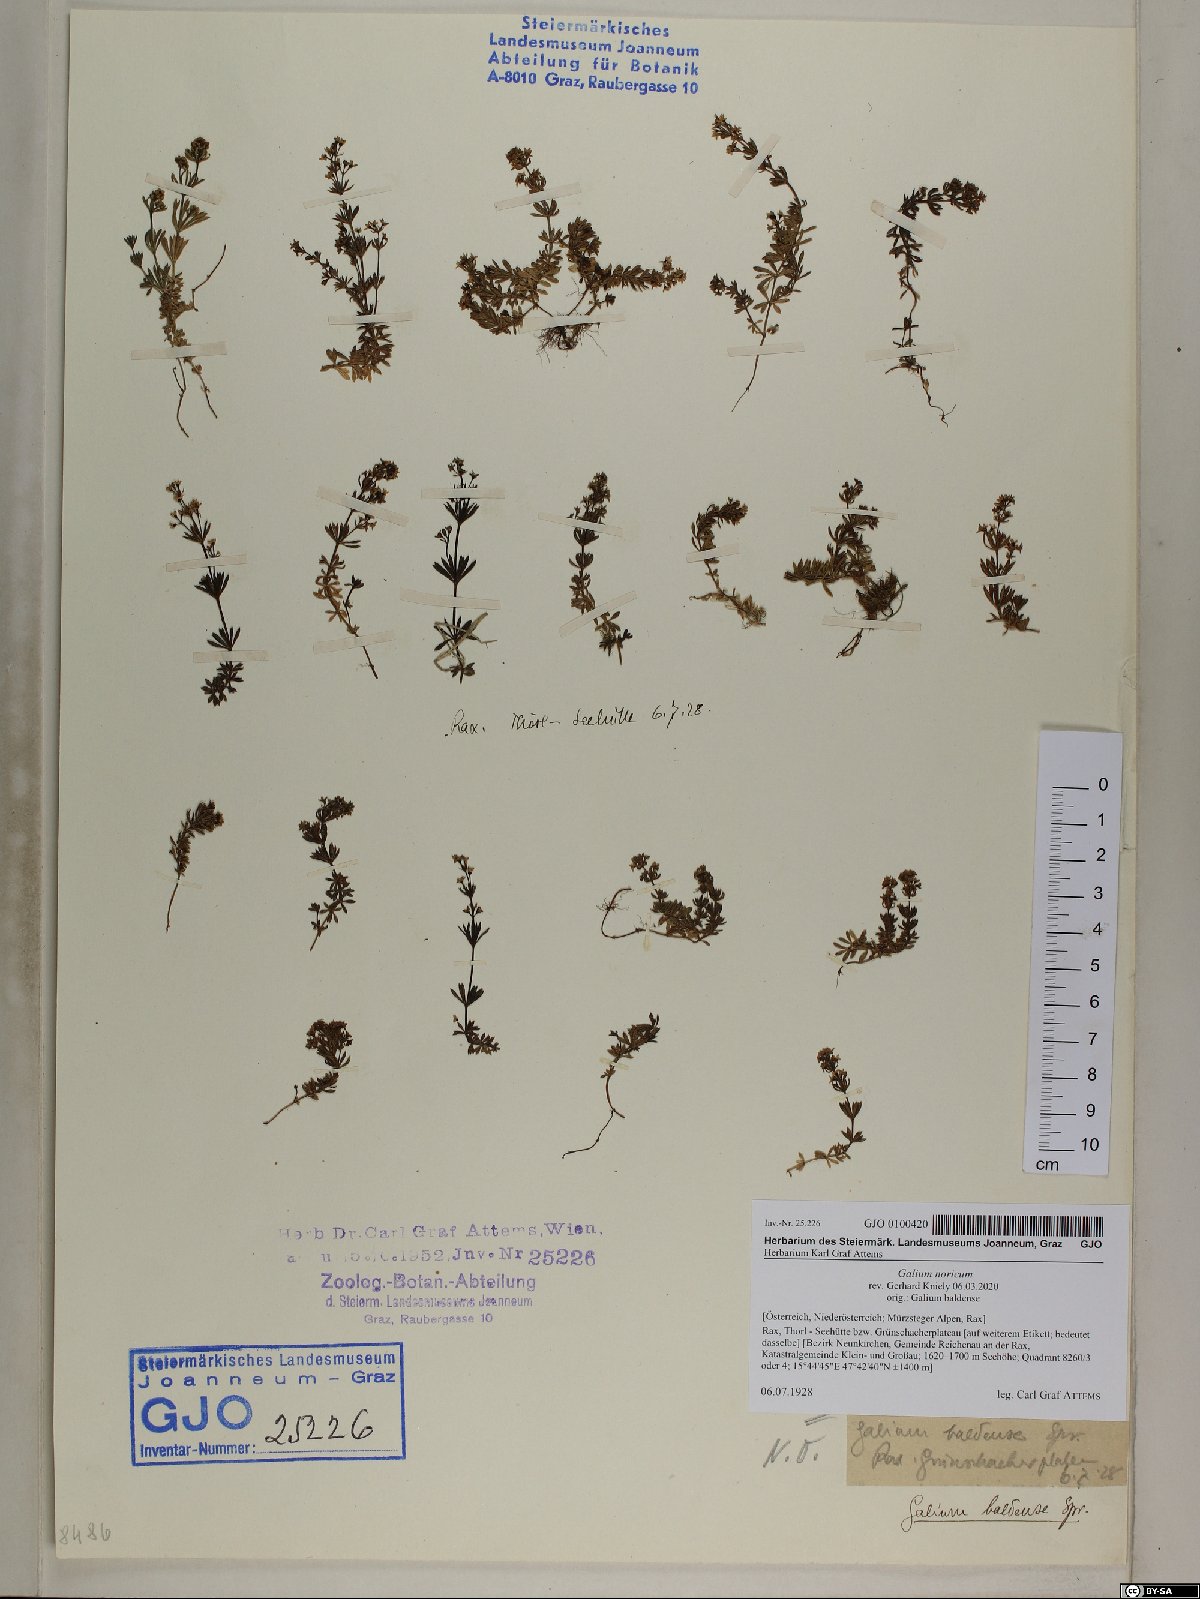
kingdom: Plantae
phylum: Tracheophyta
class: Magnoliopsida
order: Gentianales
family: Rubiaceae
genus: Galium
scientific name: Galium noricum
